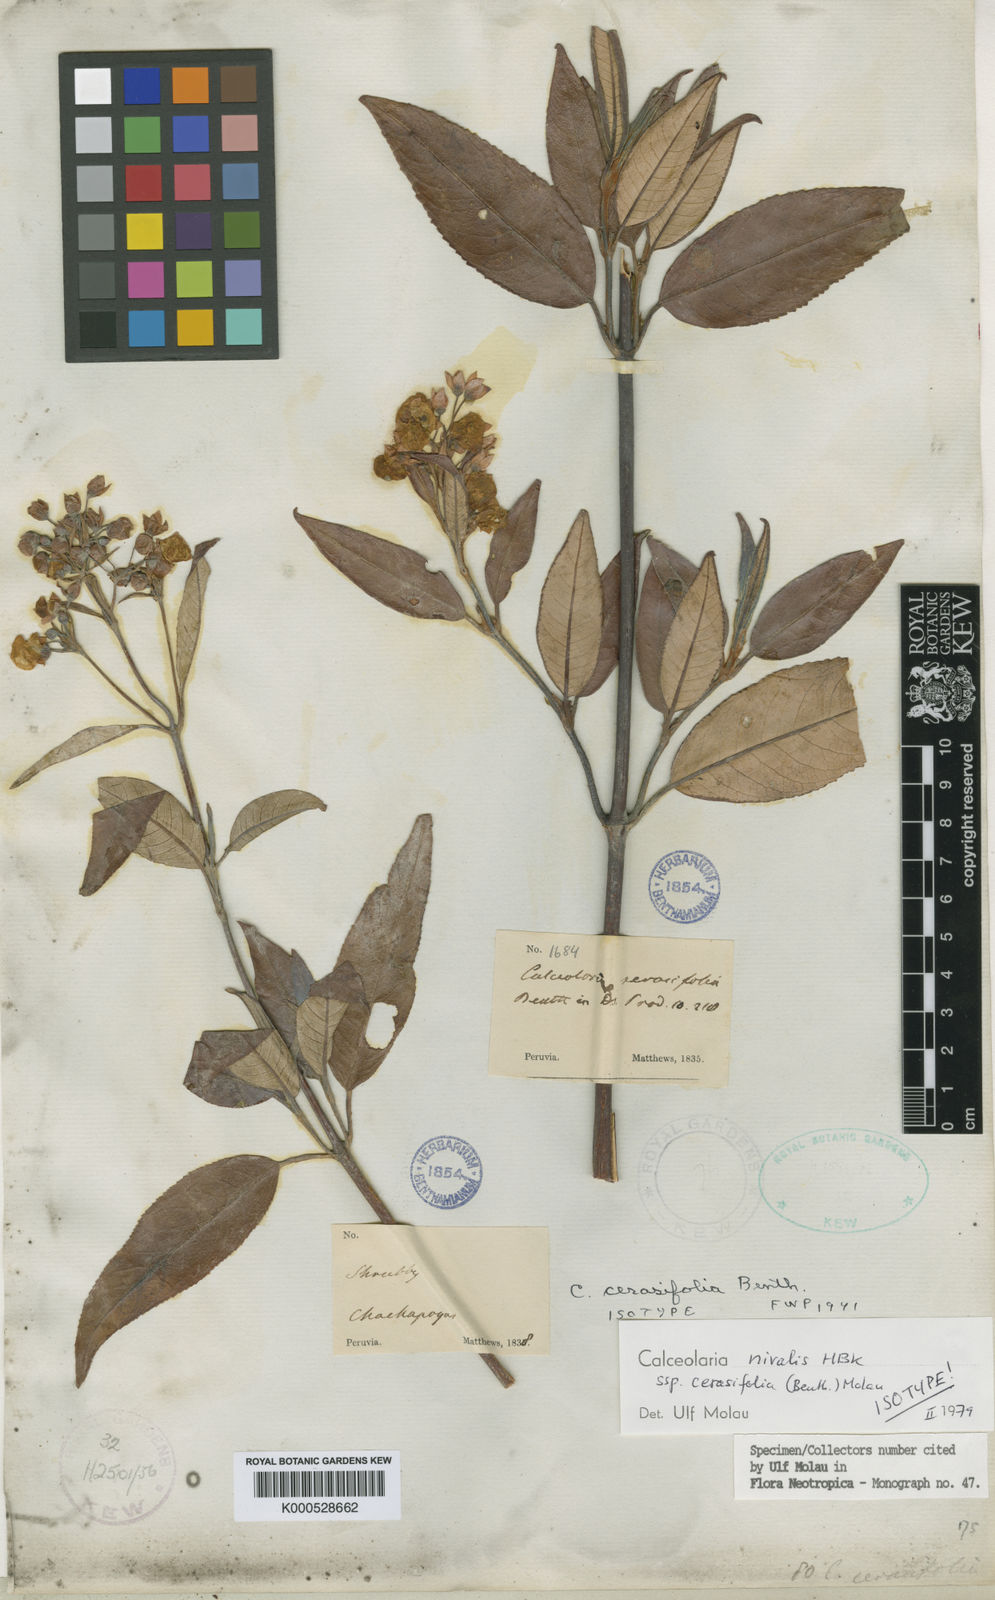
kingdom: Plantae
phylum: Tracheophyta
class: Magnoliopsida
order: Lamiales
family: Calceolariaceae
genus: Calceolaria
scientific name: Calceolaria nivalis
